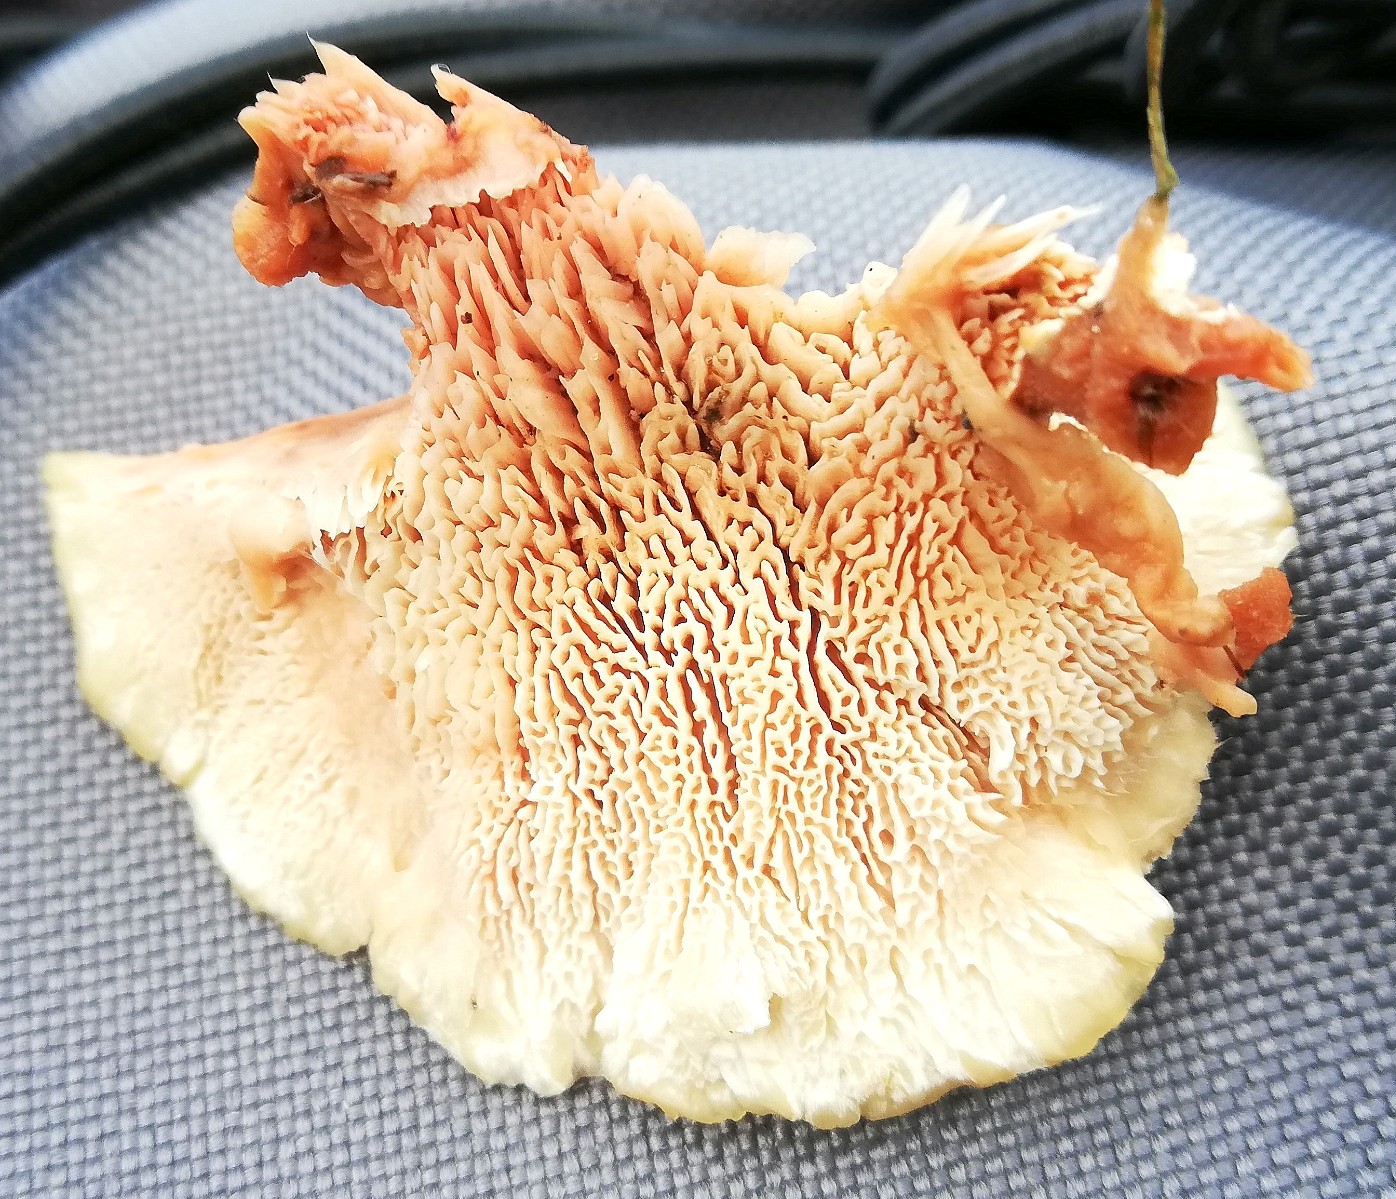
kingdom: Fungi
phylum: Basidiomycota
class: Agaricomycetes
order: Polyporales
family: Podoscyphaceae
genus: Abortiporus
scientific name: Abortiporus biennis
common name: rødmende pjalteporesvamp
